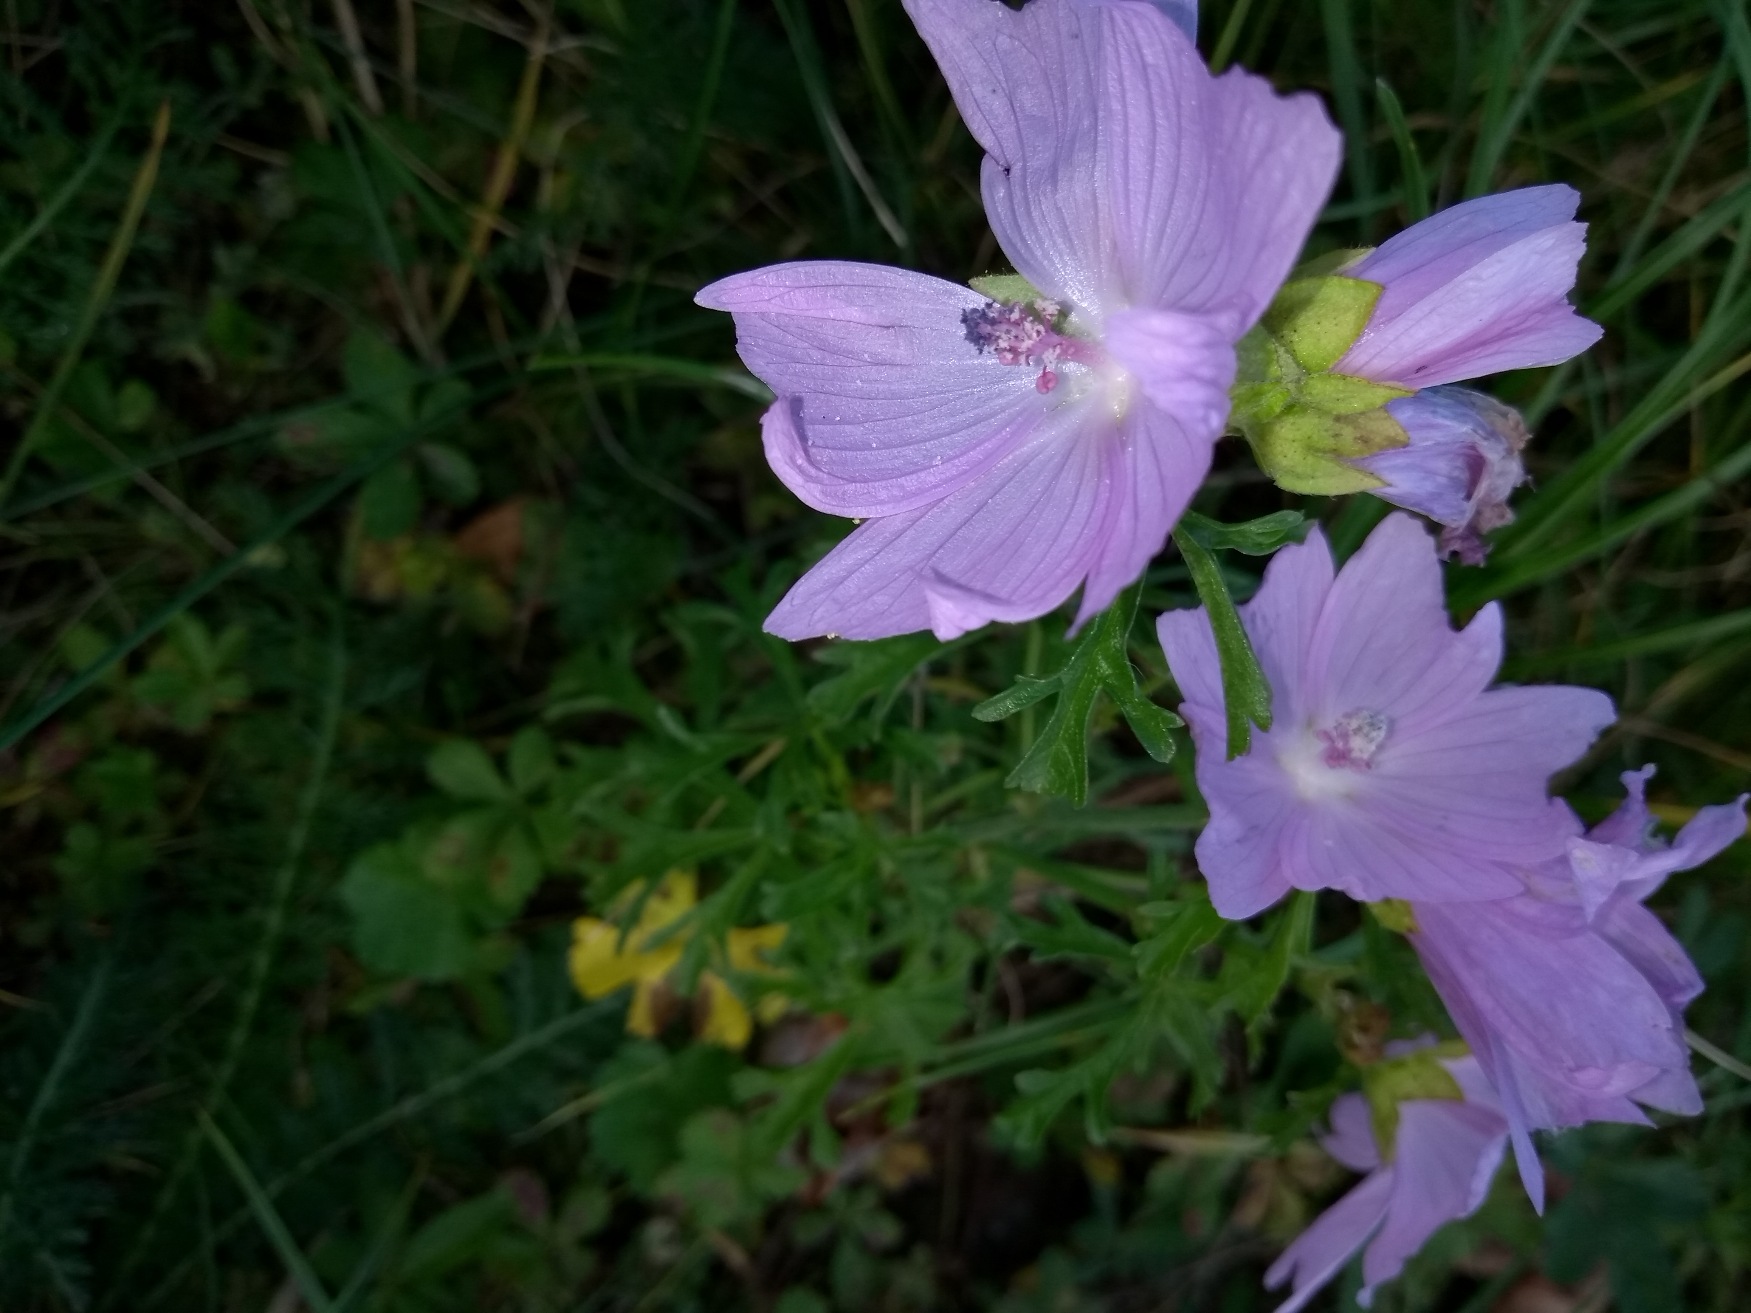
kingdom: Plantae
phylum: Tracheophyta
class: Magnoliopsida
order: Malvales
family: Malvaceae
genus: Malva
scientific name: Malva
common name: Katostslægten
